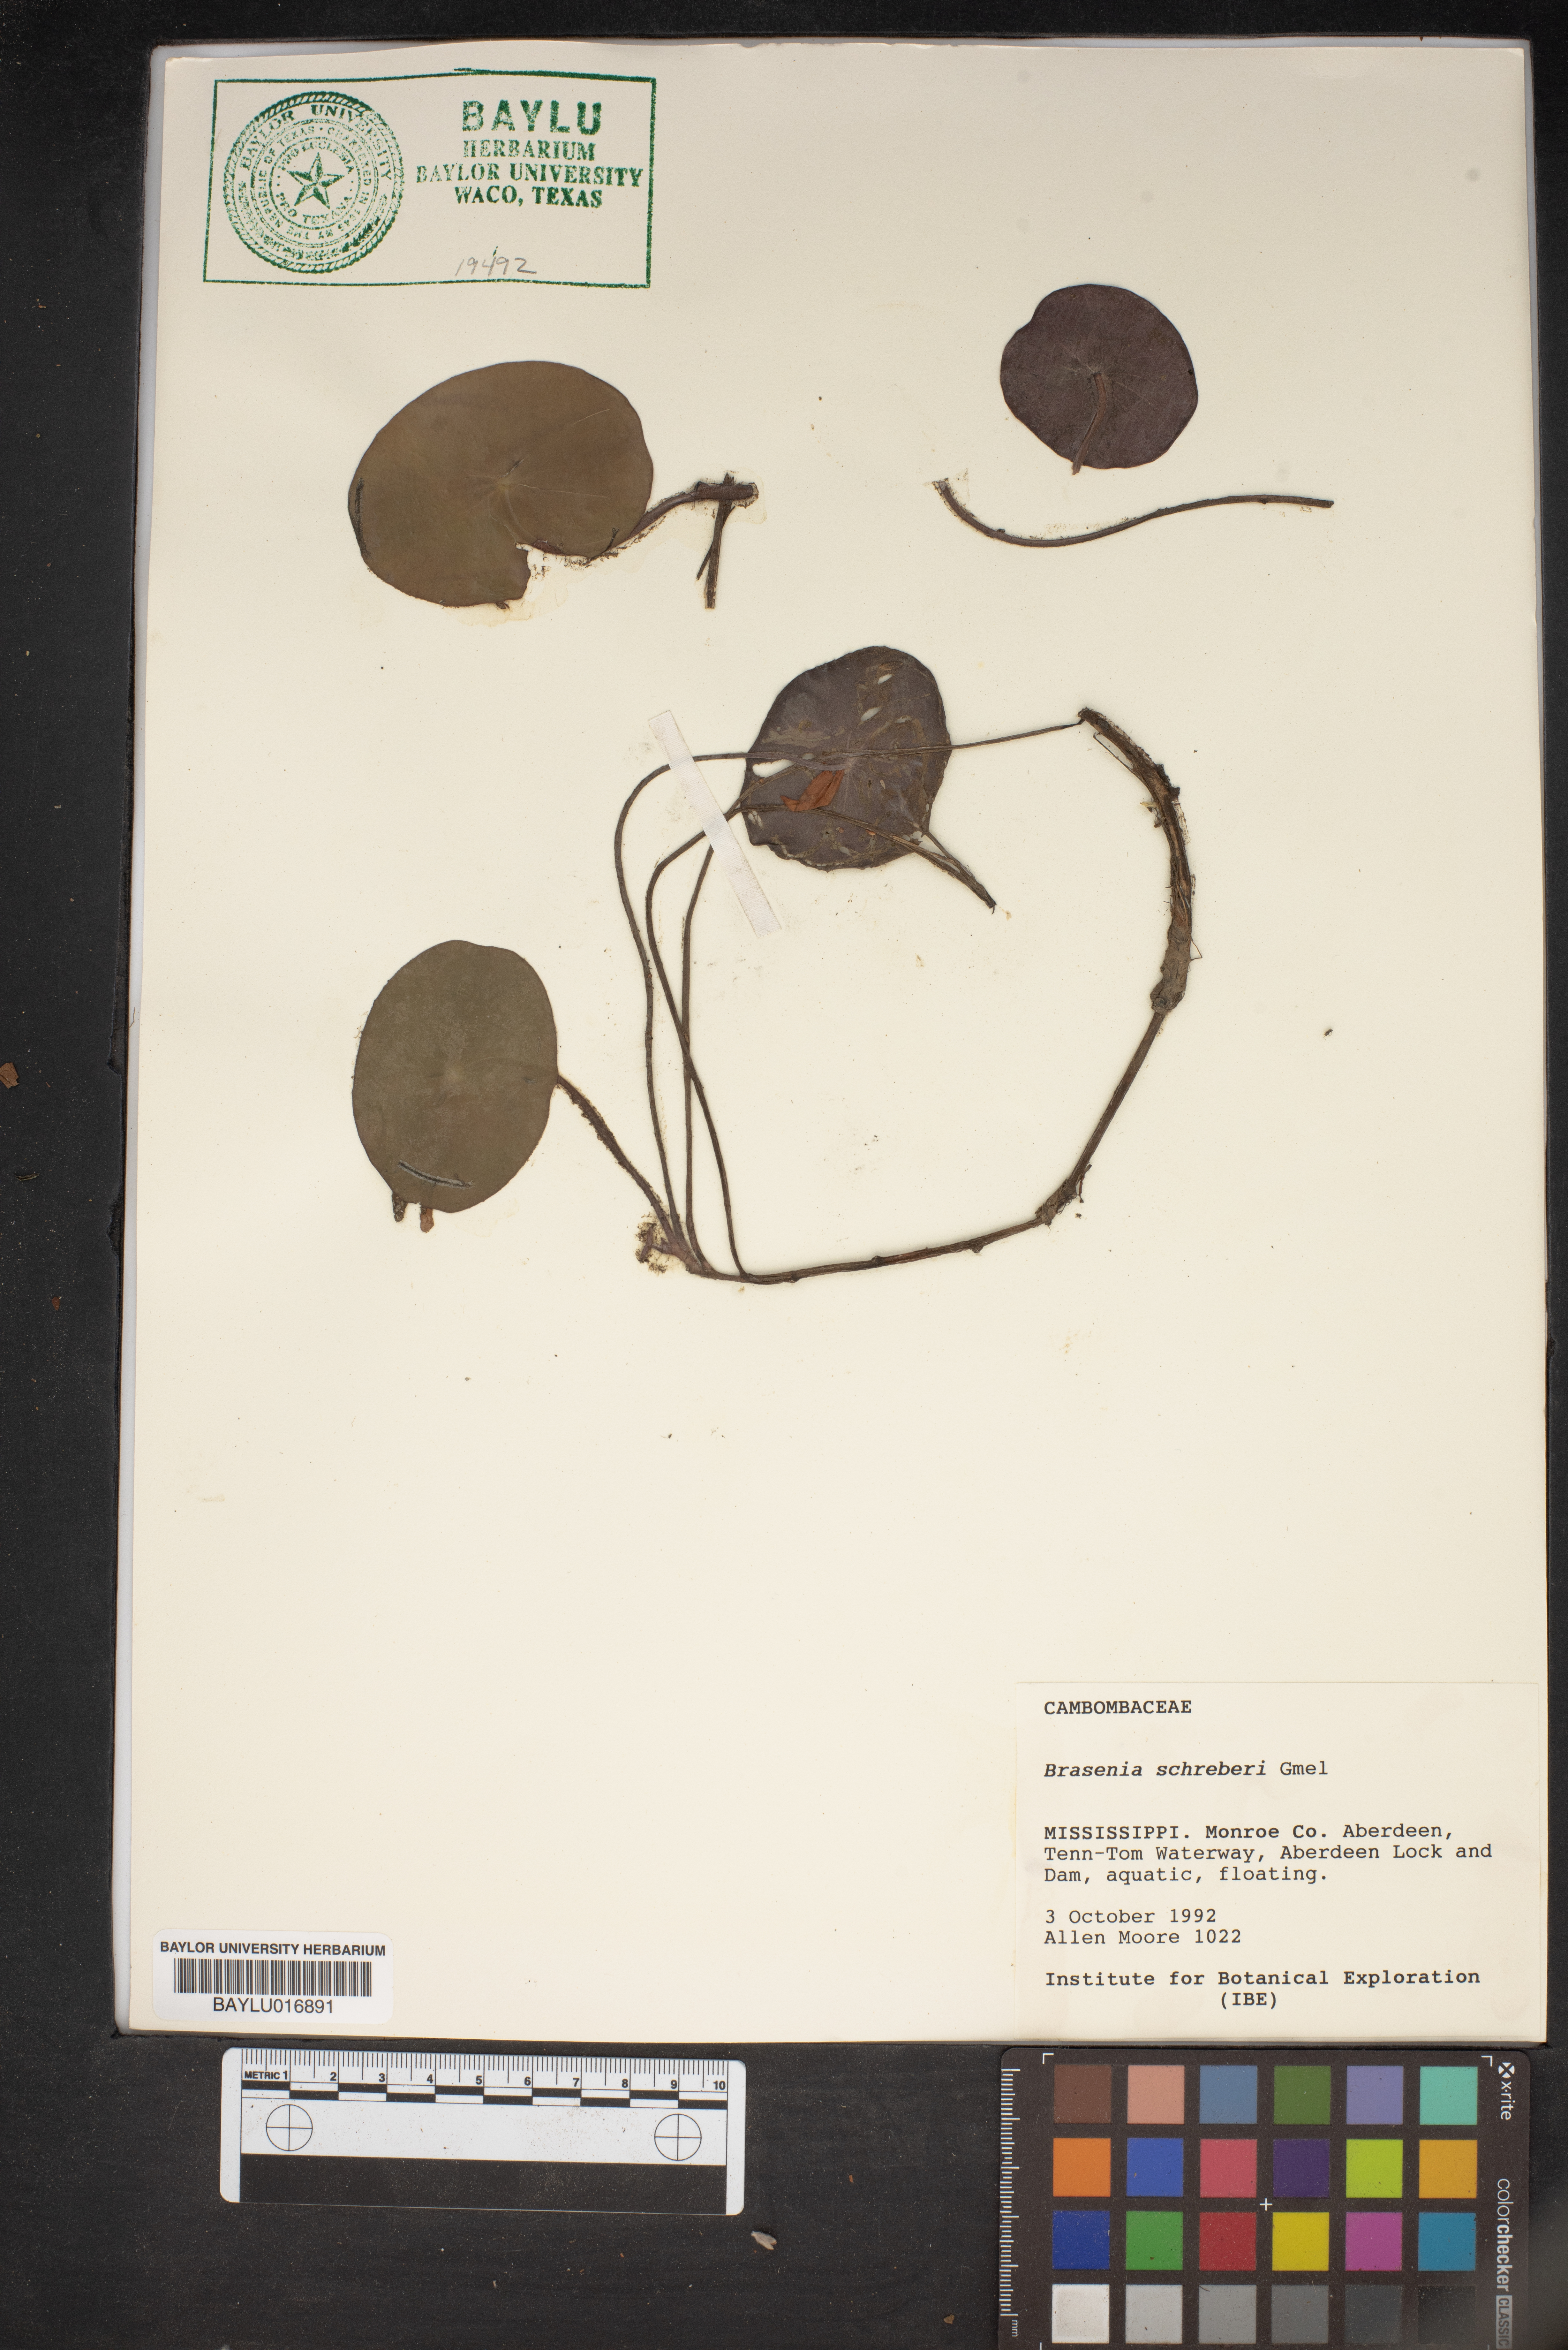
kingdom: Plantae
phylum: Tracheophyta
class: Magnoliopsida
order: Nymphaeales
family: Cabombaceae
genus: Brasenia
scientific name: Brasenia schreberi
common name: Water-shield
